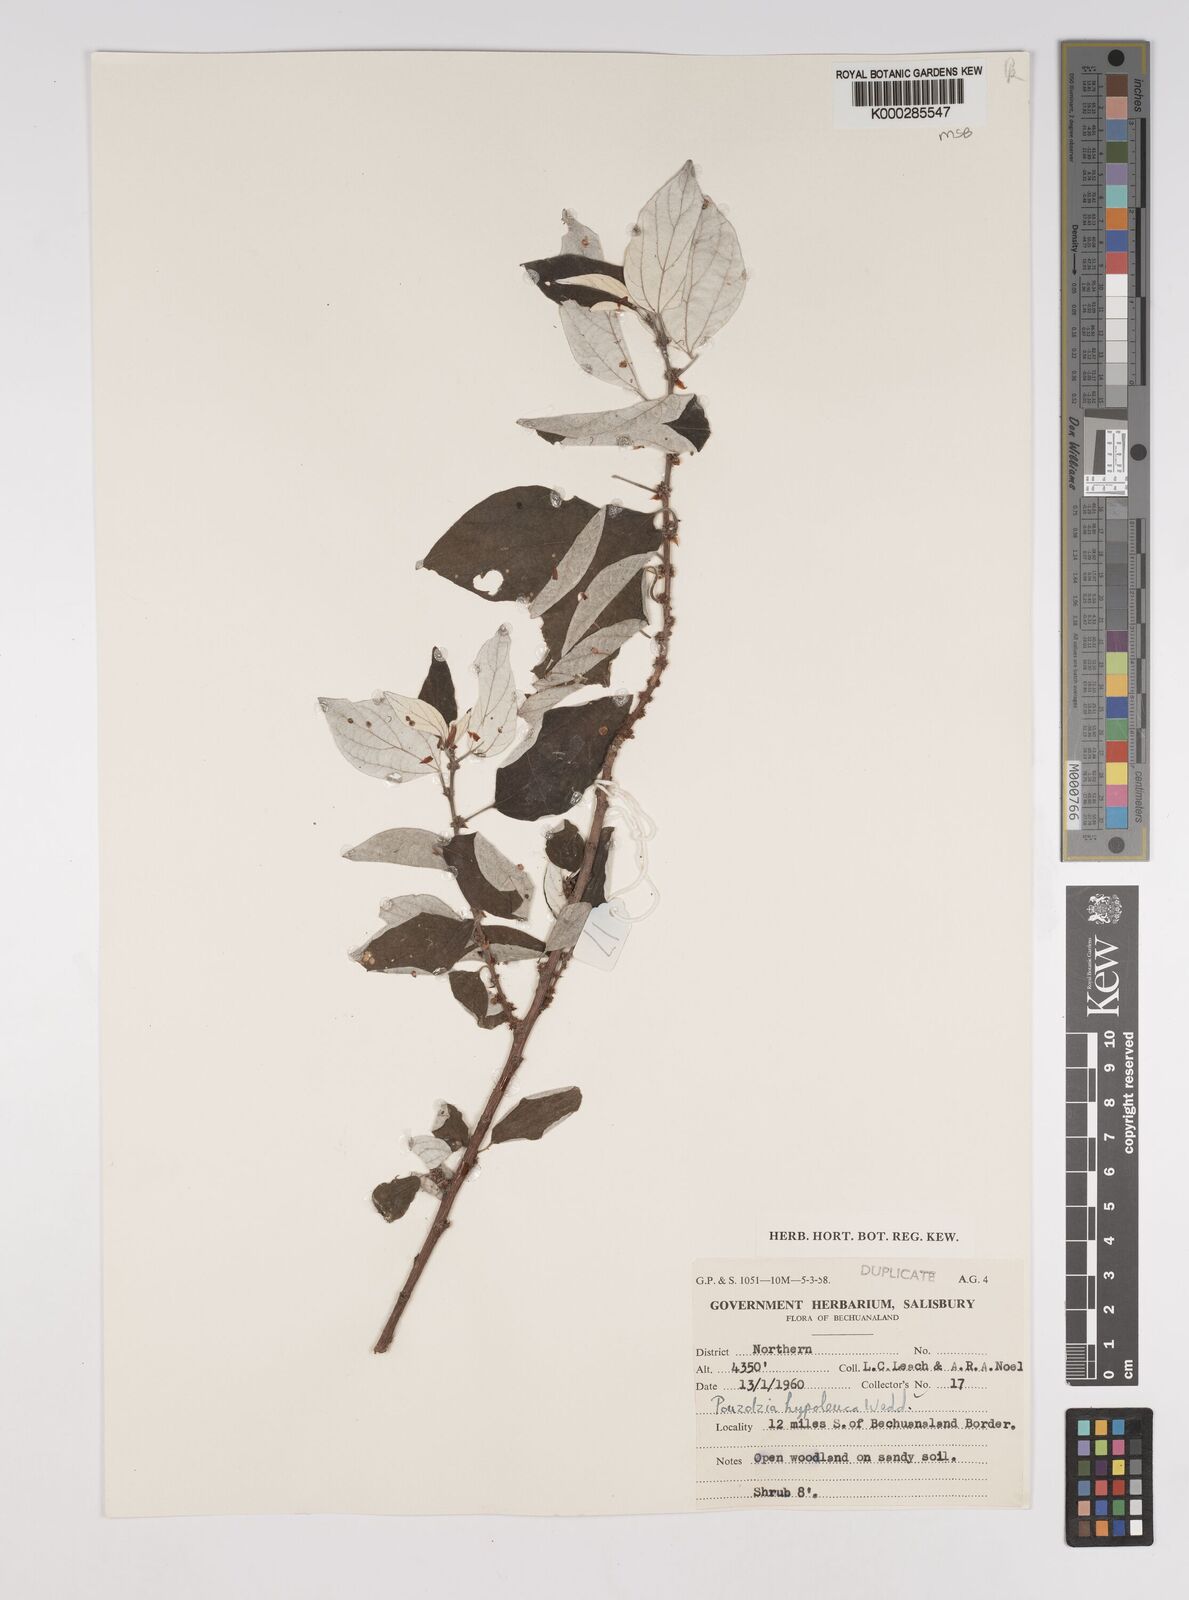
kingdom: Plantae
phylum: Tracheophyta
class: Magnoliopsida
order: Rosales
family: Urticaceae
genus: Pouzolzia
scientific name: Pouzolzia mixta
